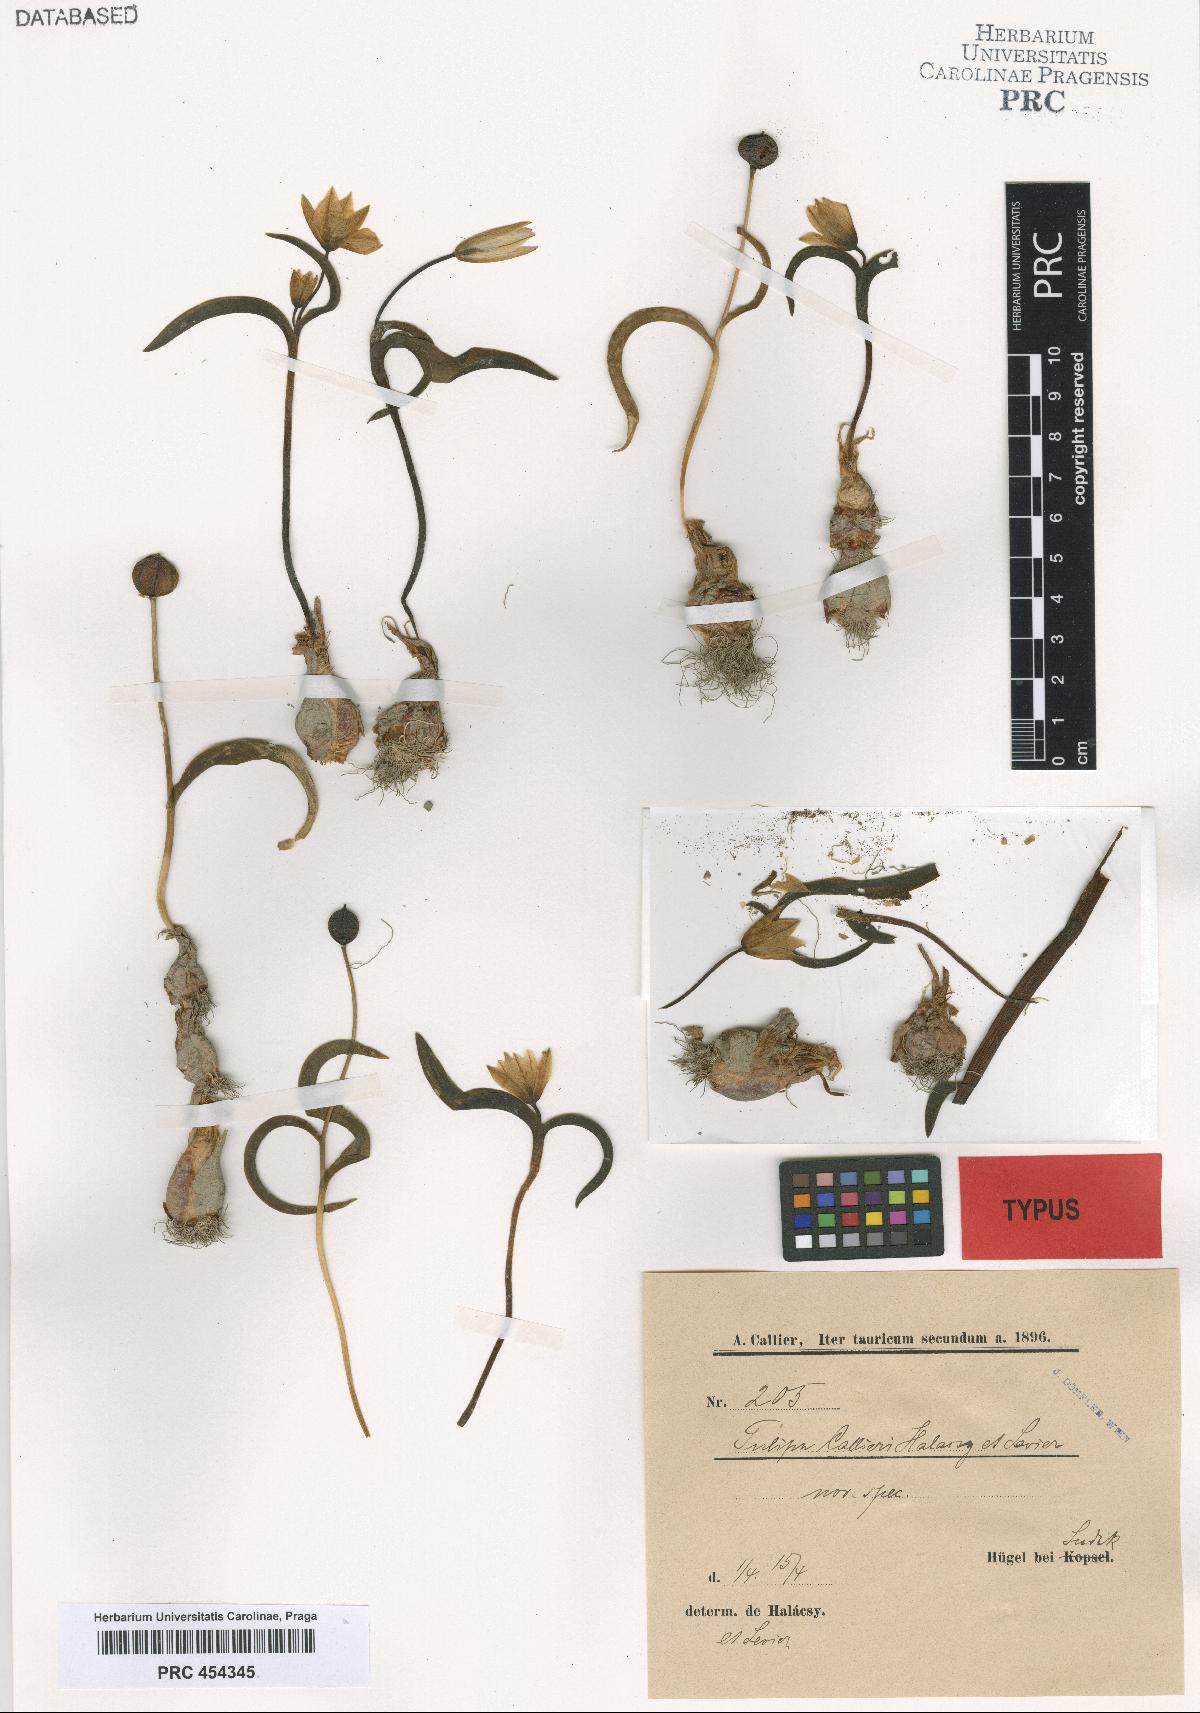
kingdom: Plantae
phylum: Tracheophyta
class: Liliopsida
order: Liliales
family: Liliaceae
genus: Tulipa
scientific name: Tulipa sylvestris
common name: Wild tulip
